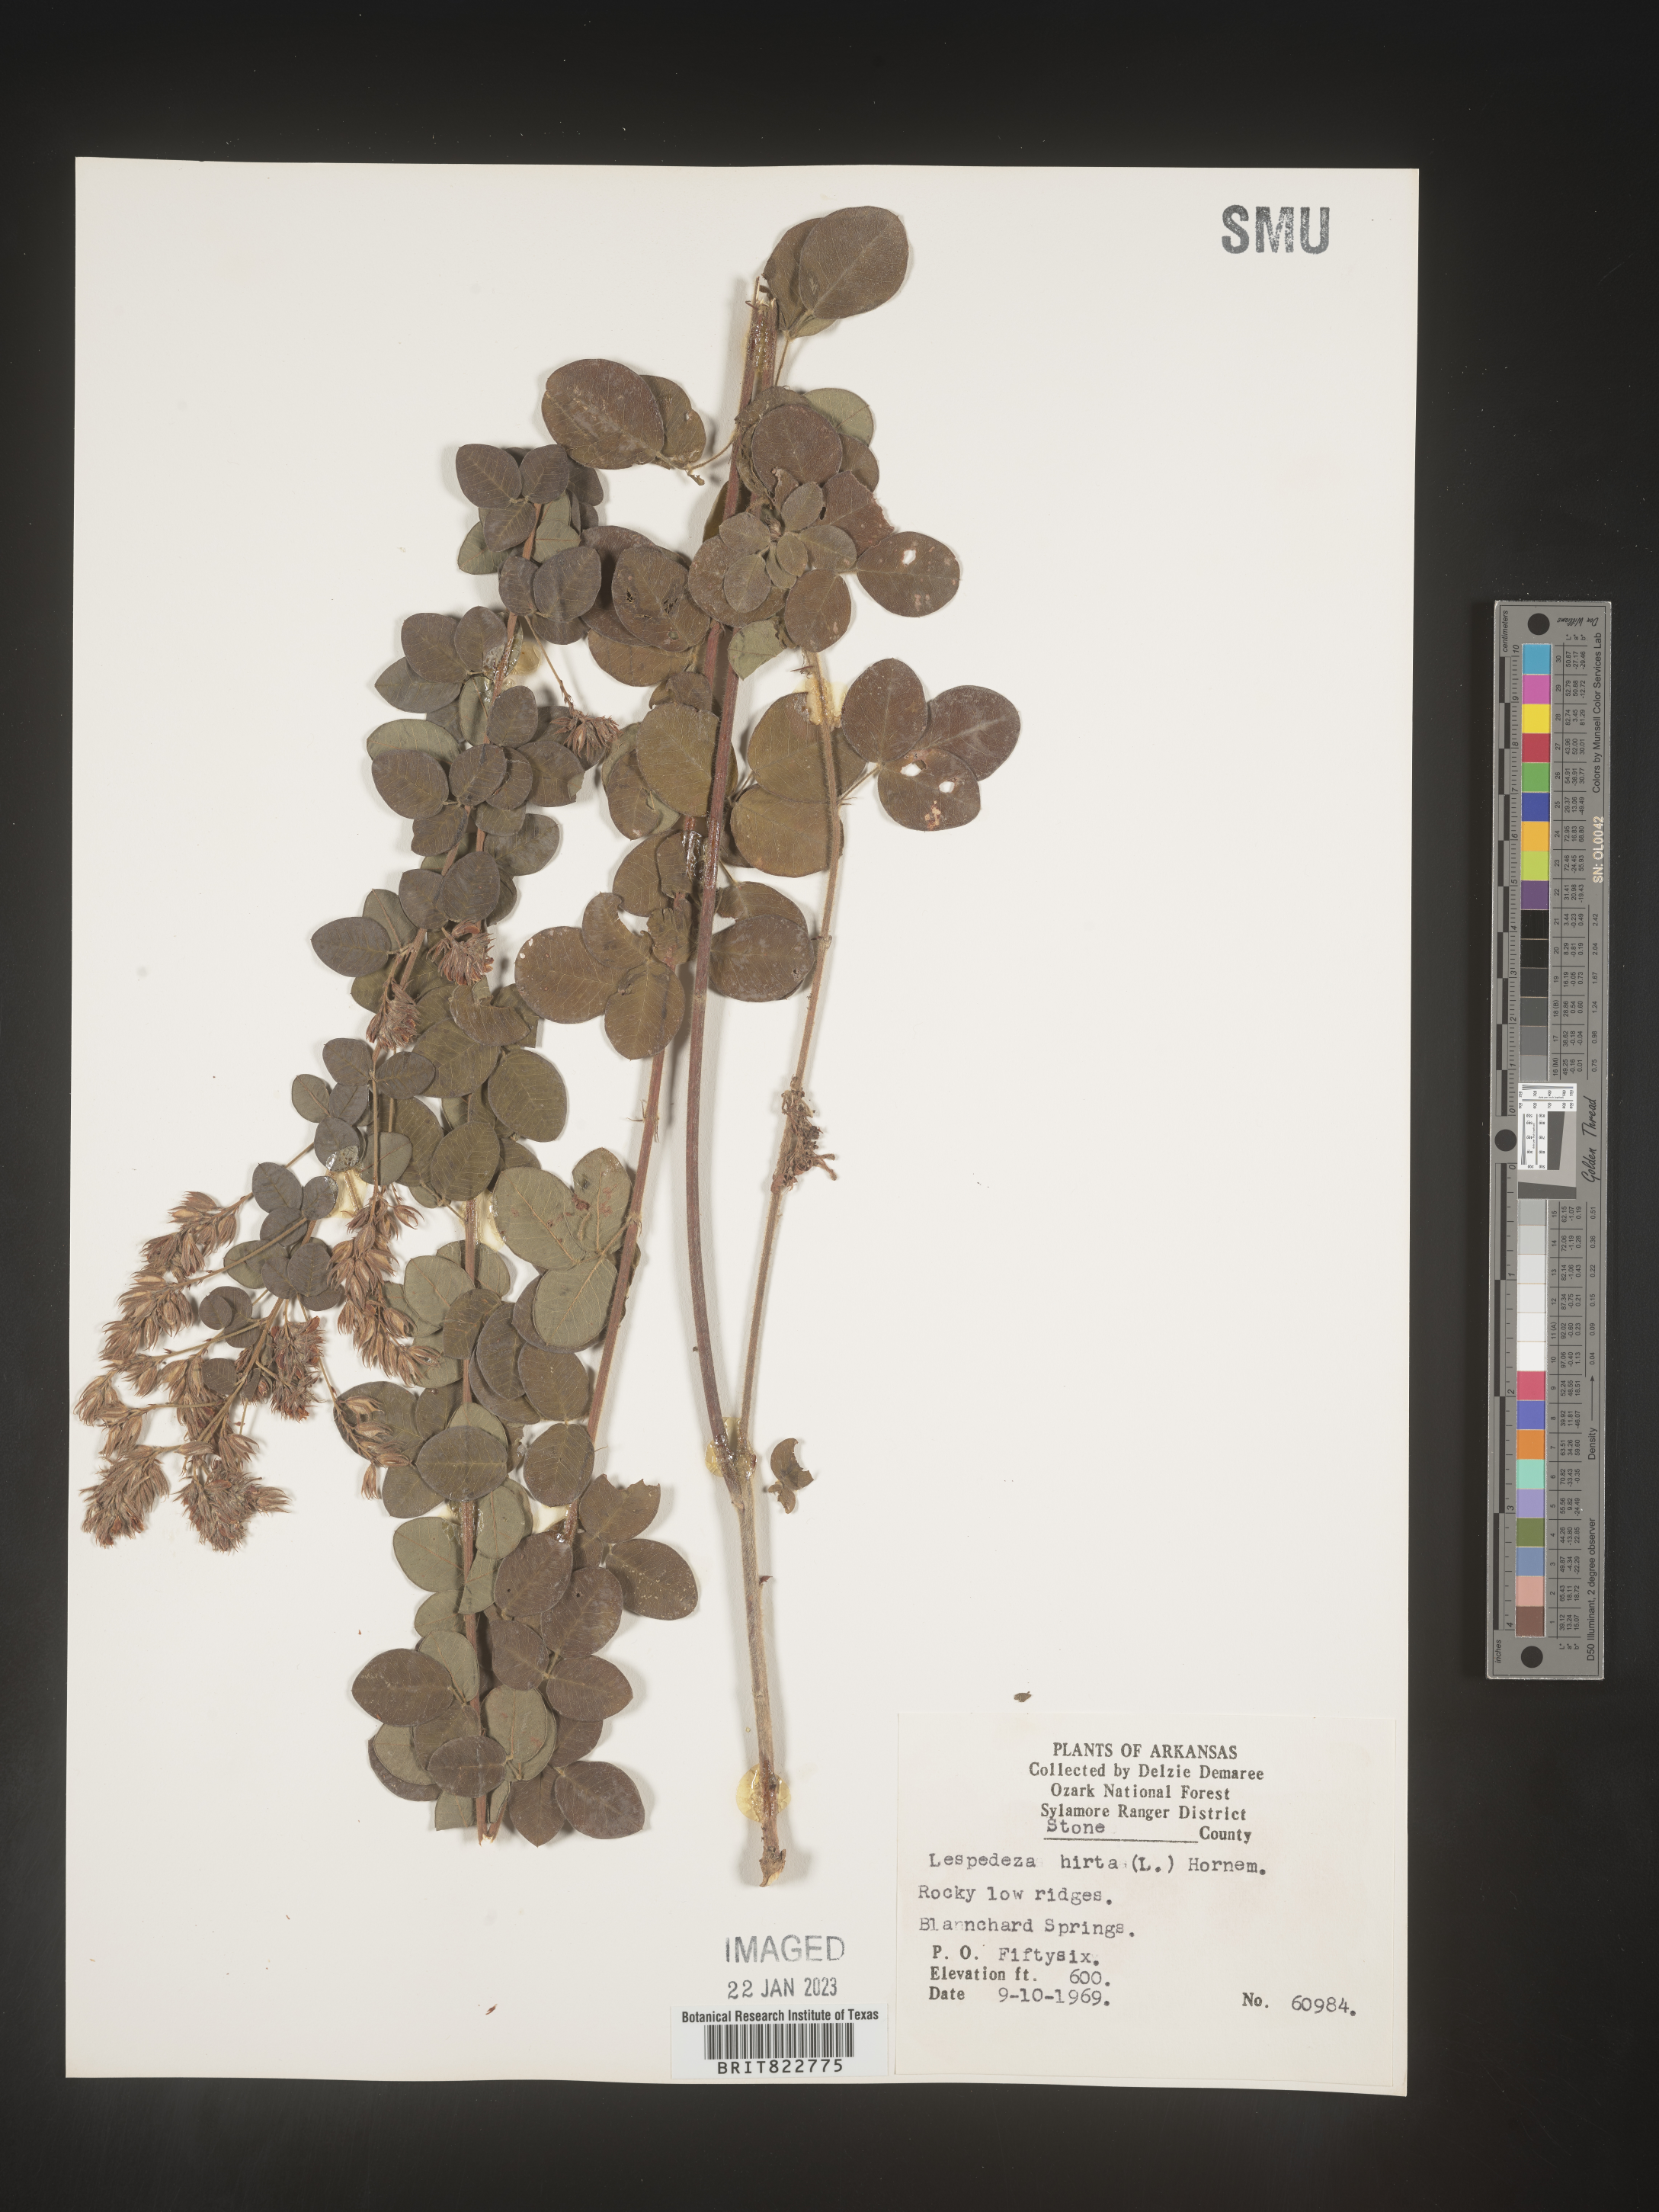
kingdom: Plantae
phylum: Tracheophyta
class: Magnoliopsida
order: Fabales
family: Fabaceae
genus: Lespedeza
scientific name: Lespedeza hirta
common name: Hairy lespedeza
